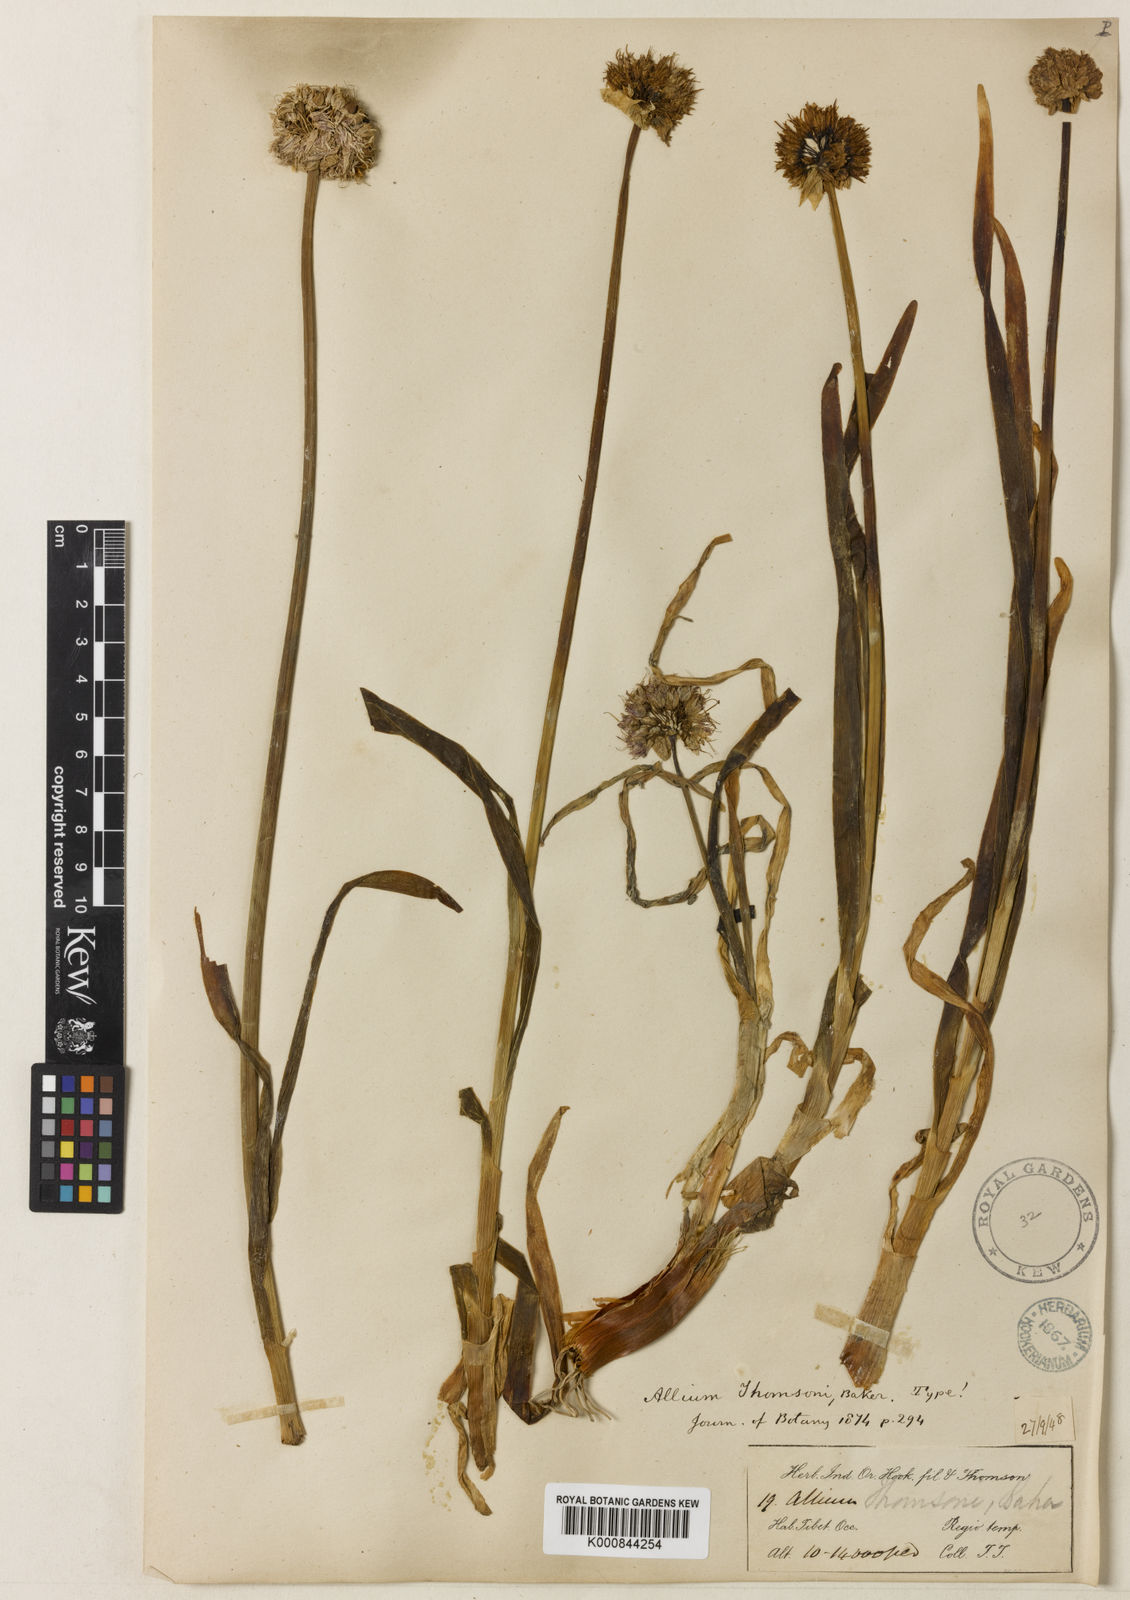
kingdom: Plantae
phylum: Tracheophyta
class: Liliopsida
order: Asparagales
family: Amaryllidaceae
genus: Allium
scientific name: Allium carolinianum
